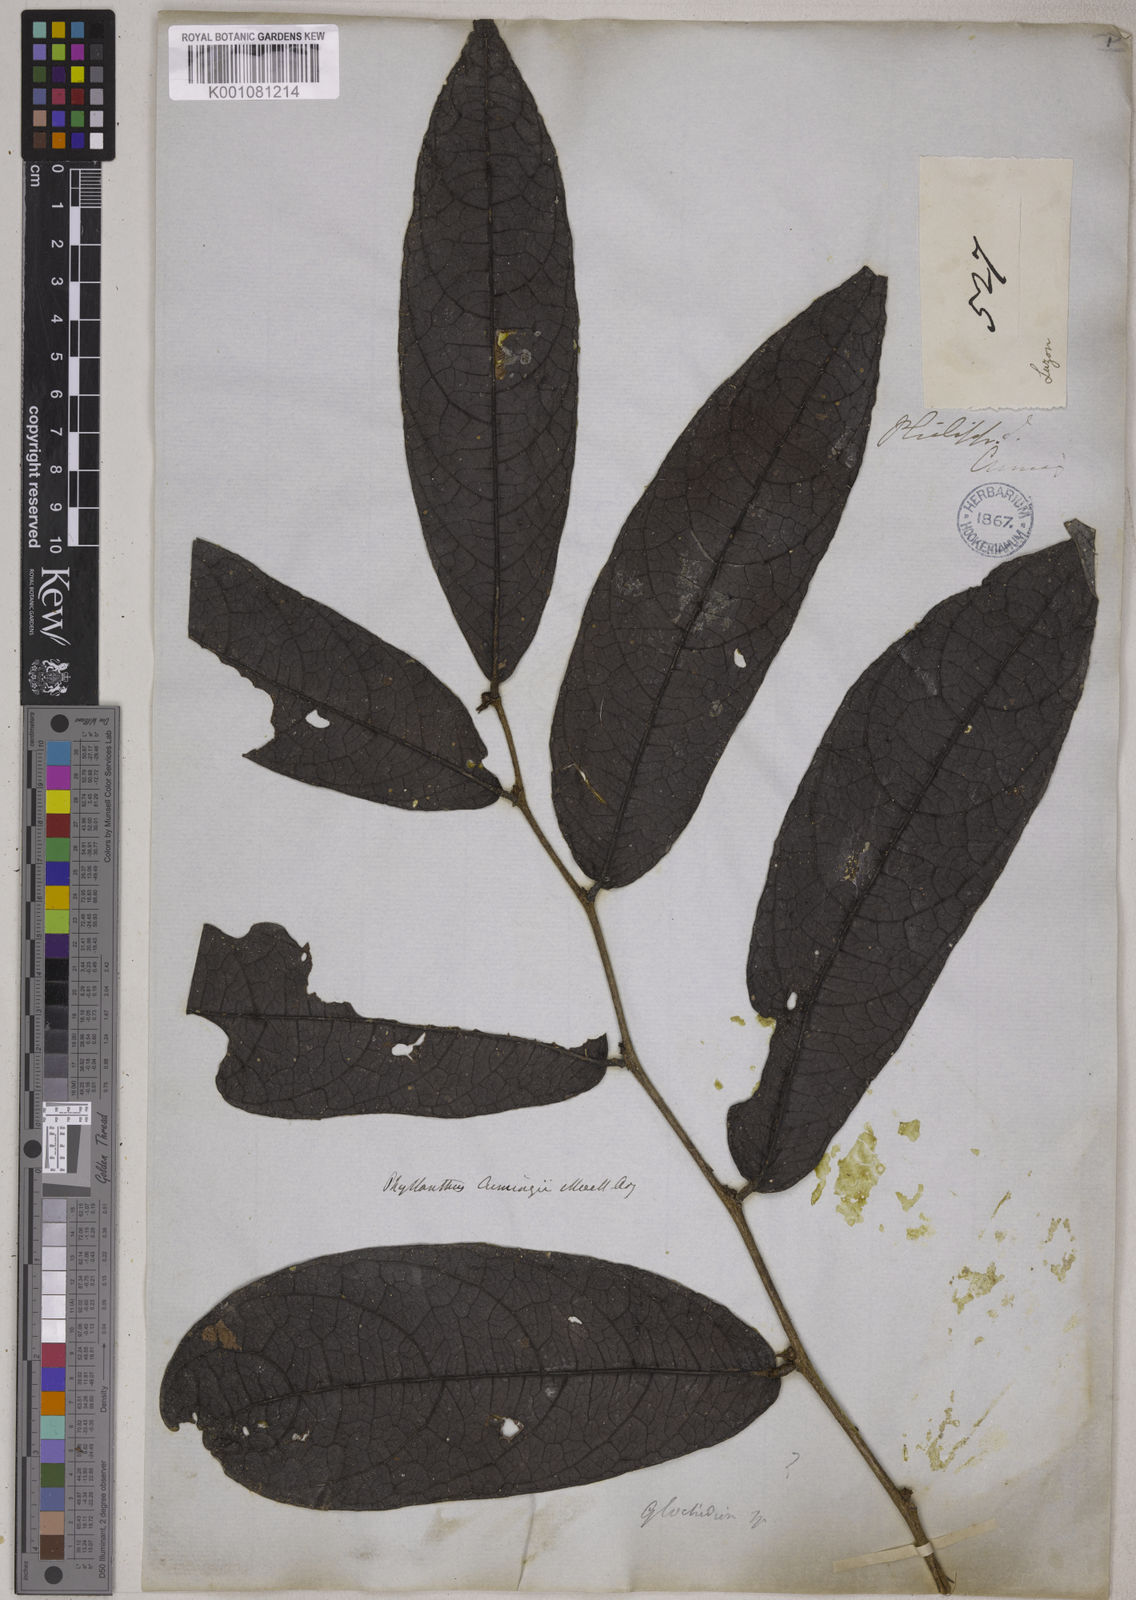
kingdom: Plantae
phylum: Tracheophyta
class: Magnoliopsida
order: Malpighiales
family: Phyllanthaceae
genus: Glochidion
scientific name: Glochidion album
